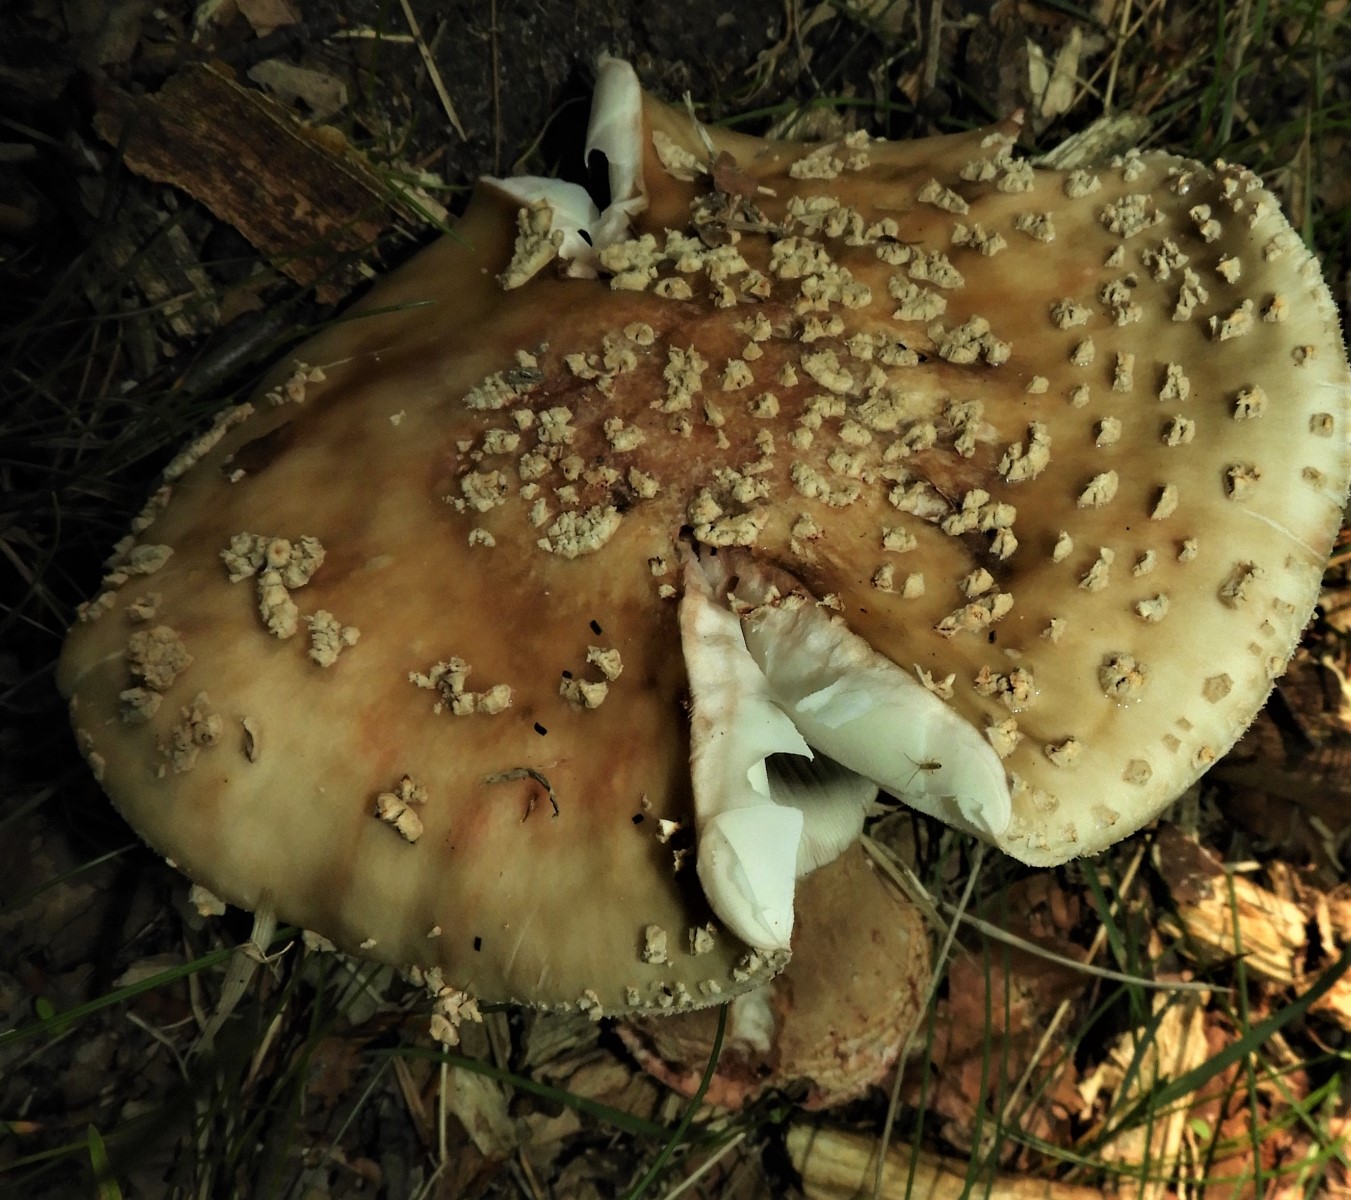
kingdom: Fungi
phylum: Basidiomycota
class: Agaricomycetes
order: Agaricales
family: Amanitaceae
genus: Amanita
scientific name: Amanita rubescens
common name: rødmende fluesvamp
